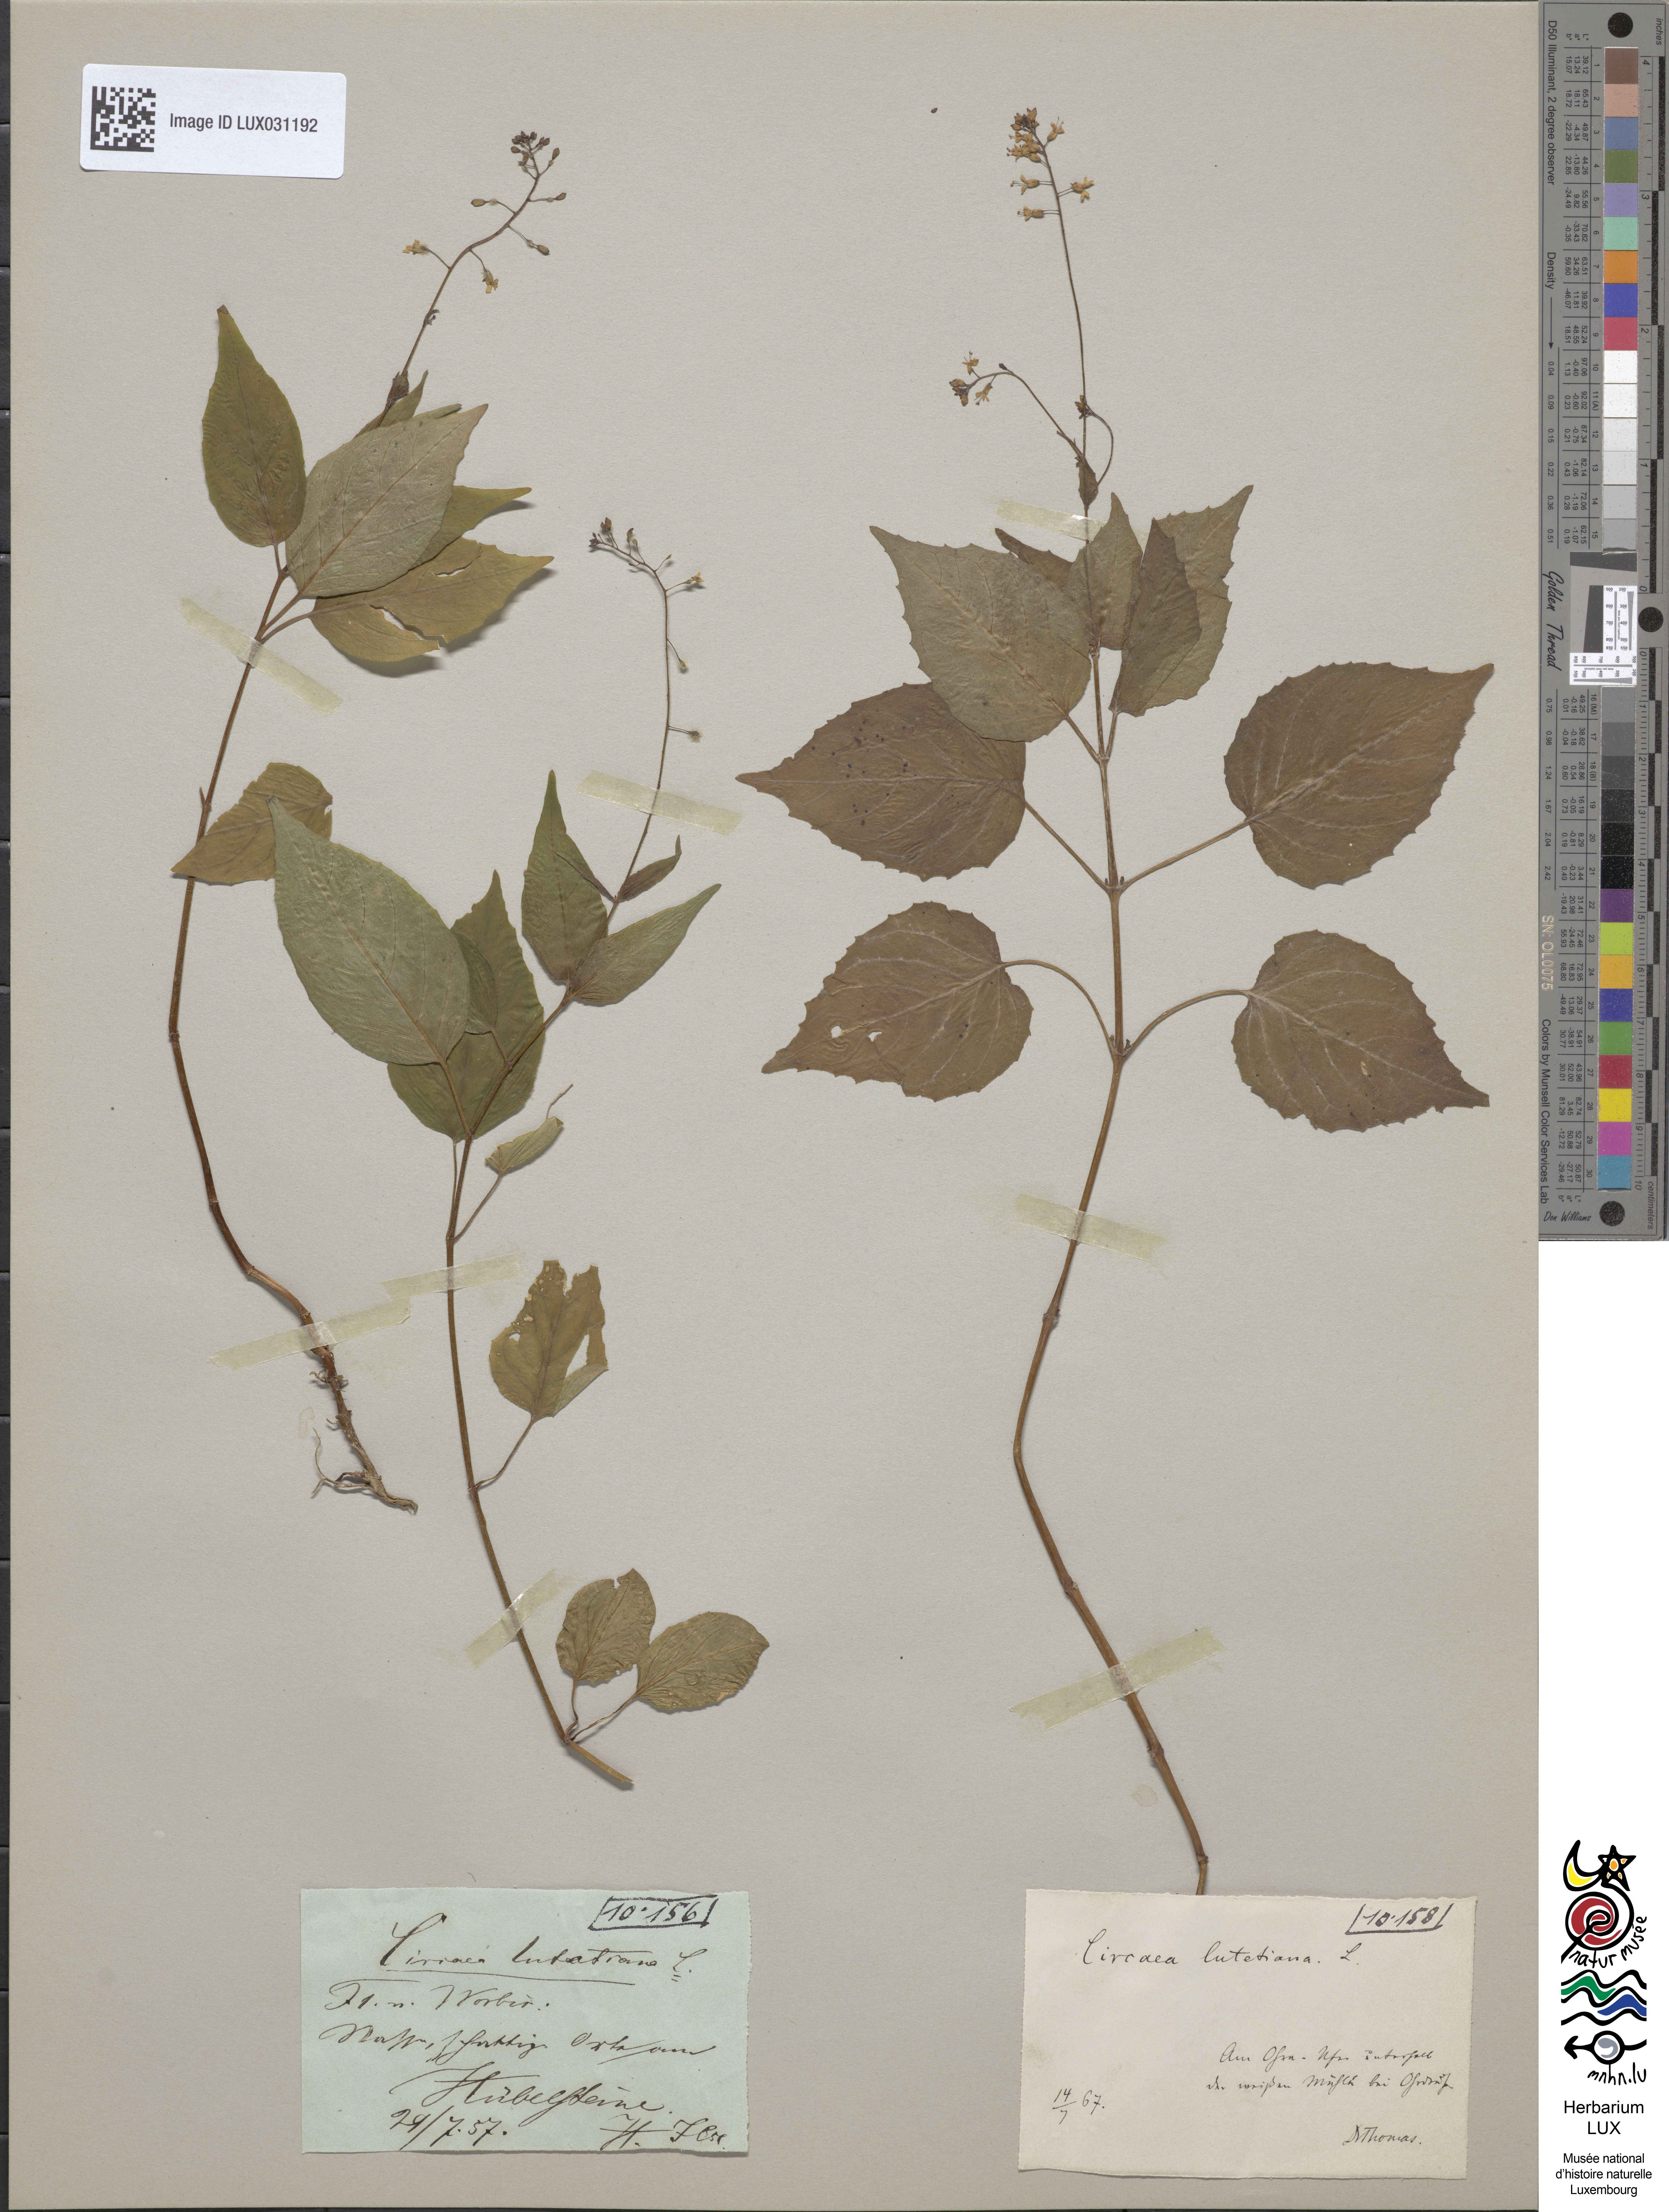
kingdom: Plantae
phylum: Tracheophyta
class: Magnoliopsida
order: Myrtales
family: Onagraceae
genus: Circaea
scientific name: Circaea lutetiana
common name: Enchanter's-nightshade
